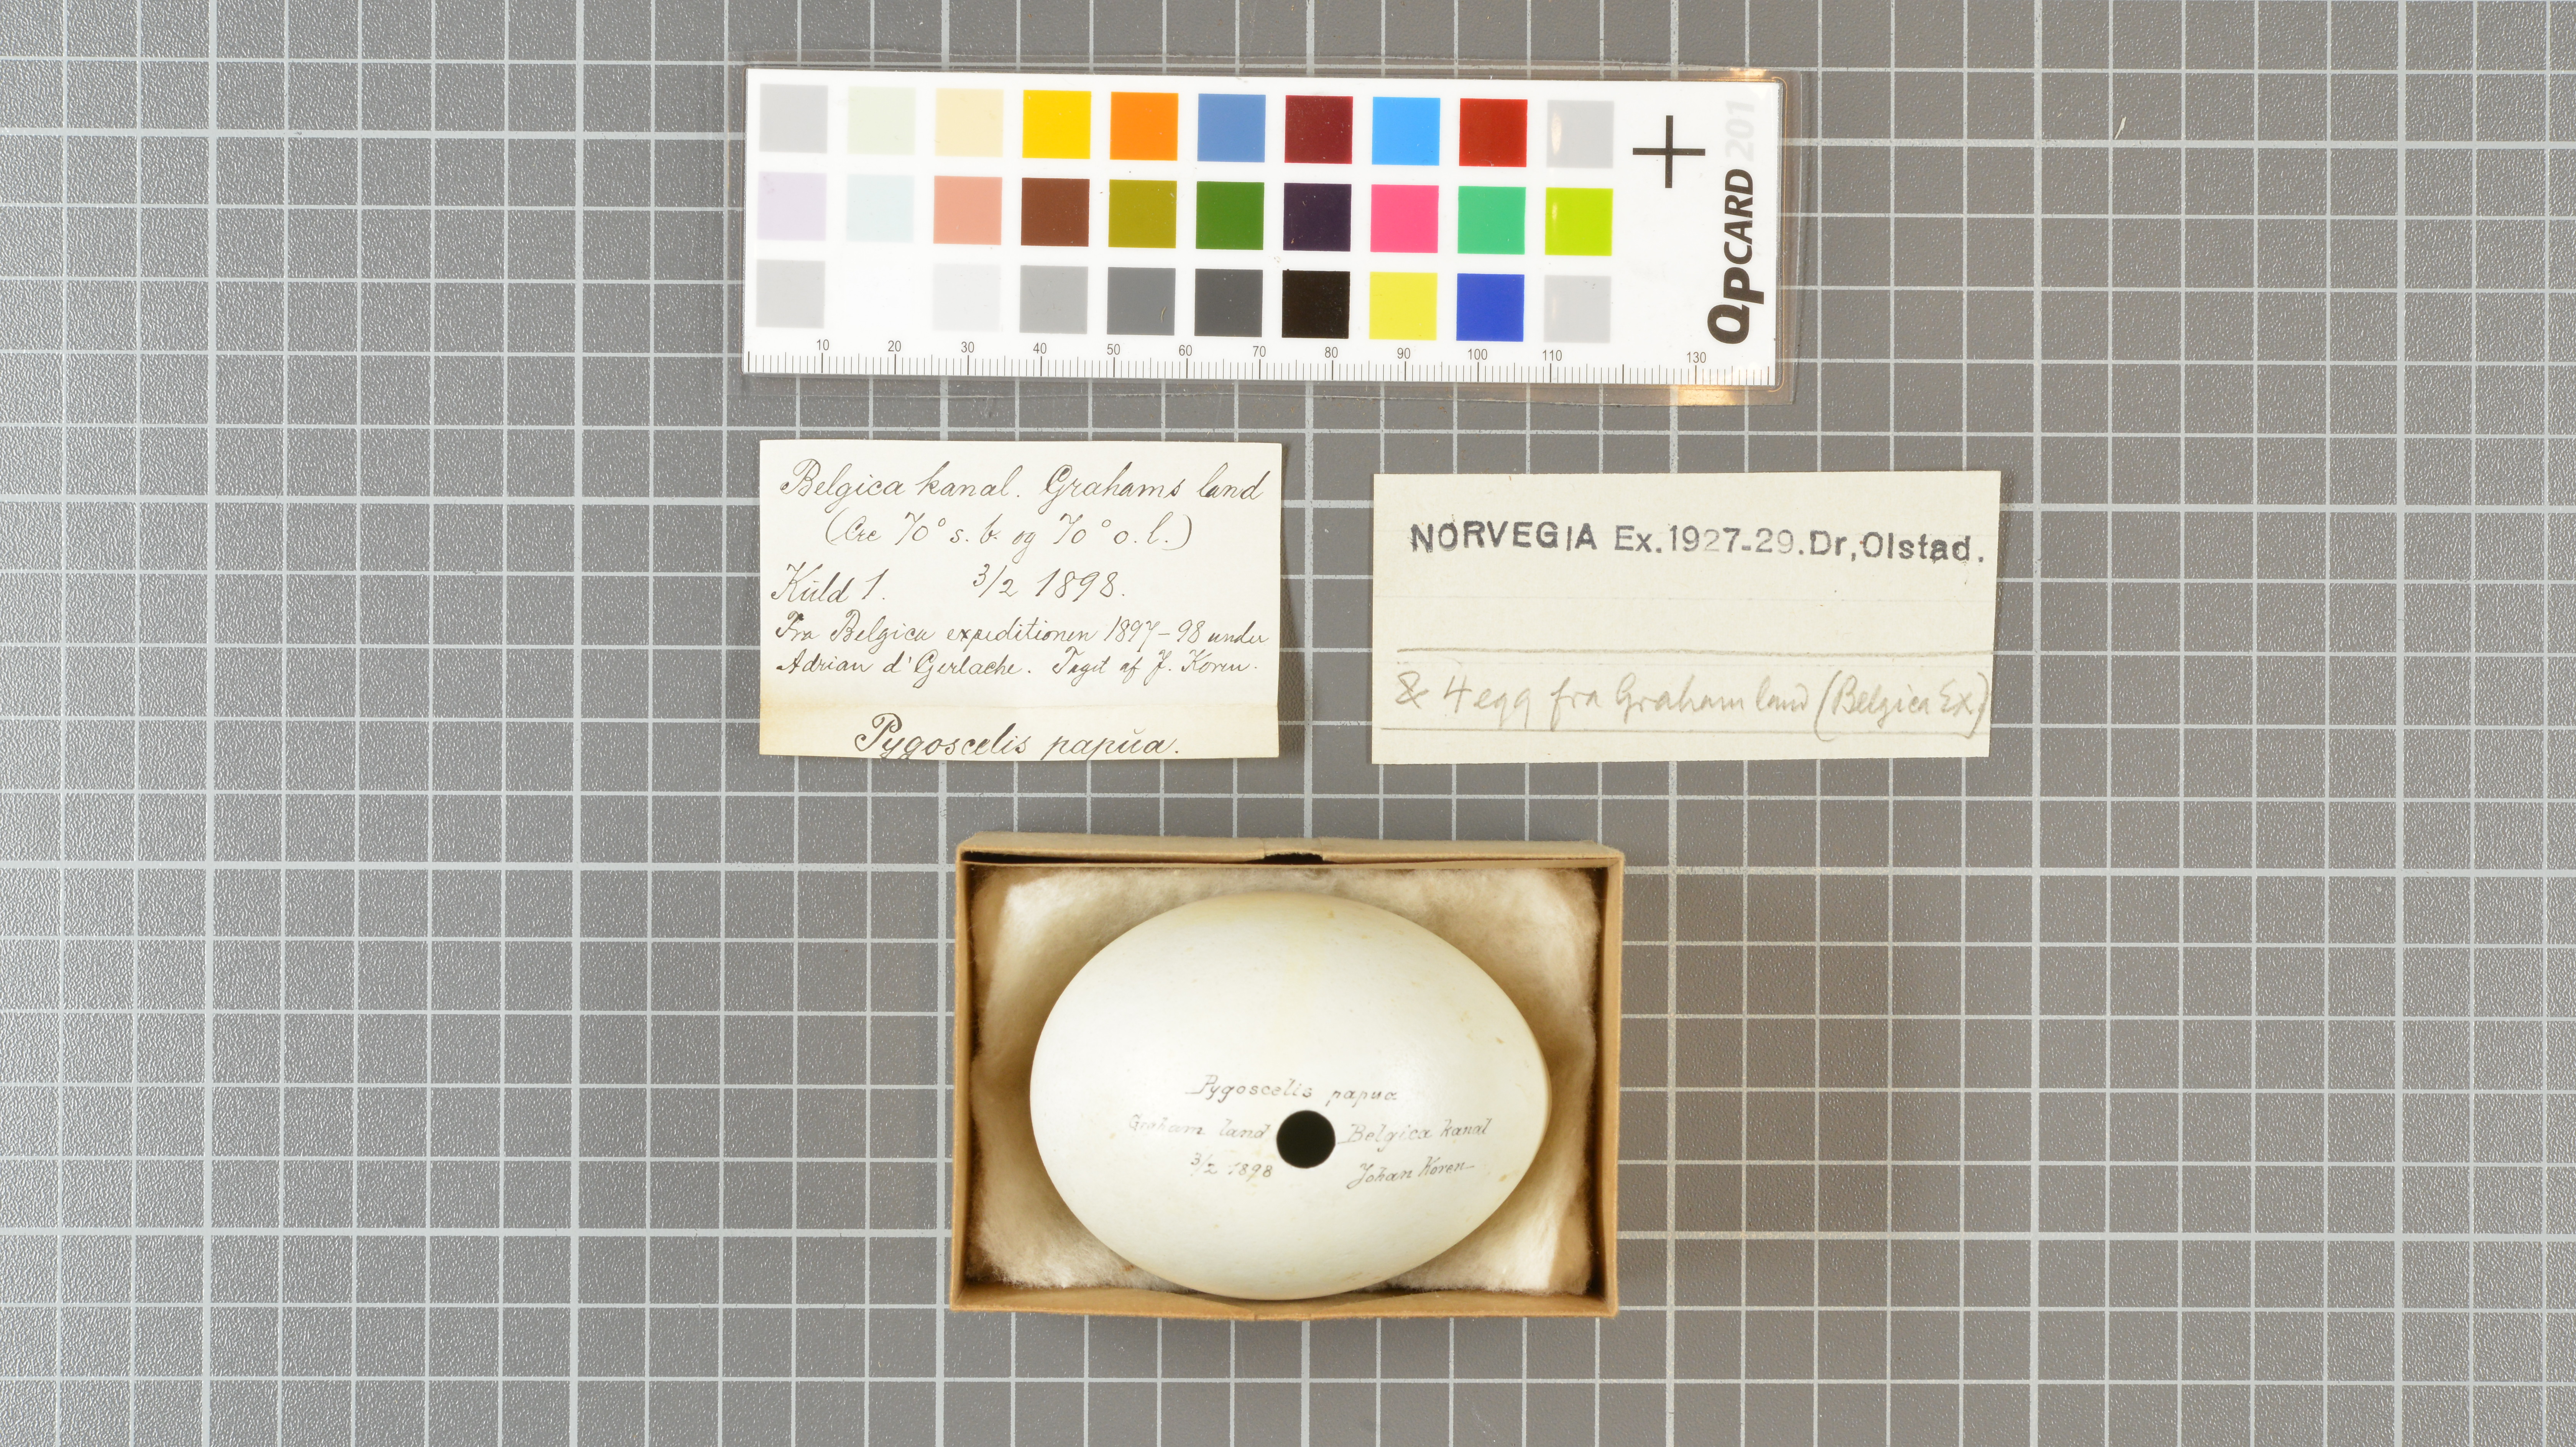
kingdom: Animalia
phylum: Chordata
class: Aves
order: Sphenisciformes
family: Spheniscidae
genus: Pygoscelis
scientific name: Pygoscelis papua
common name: Gentoo penguin
